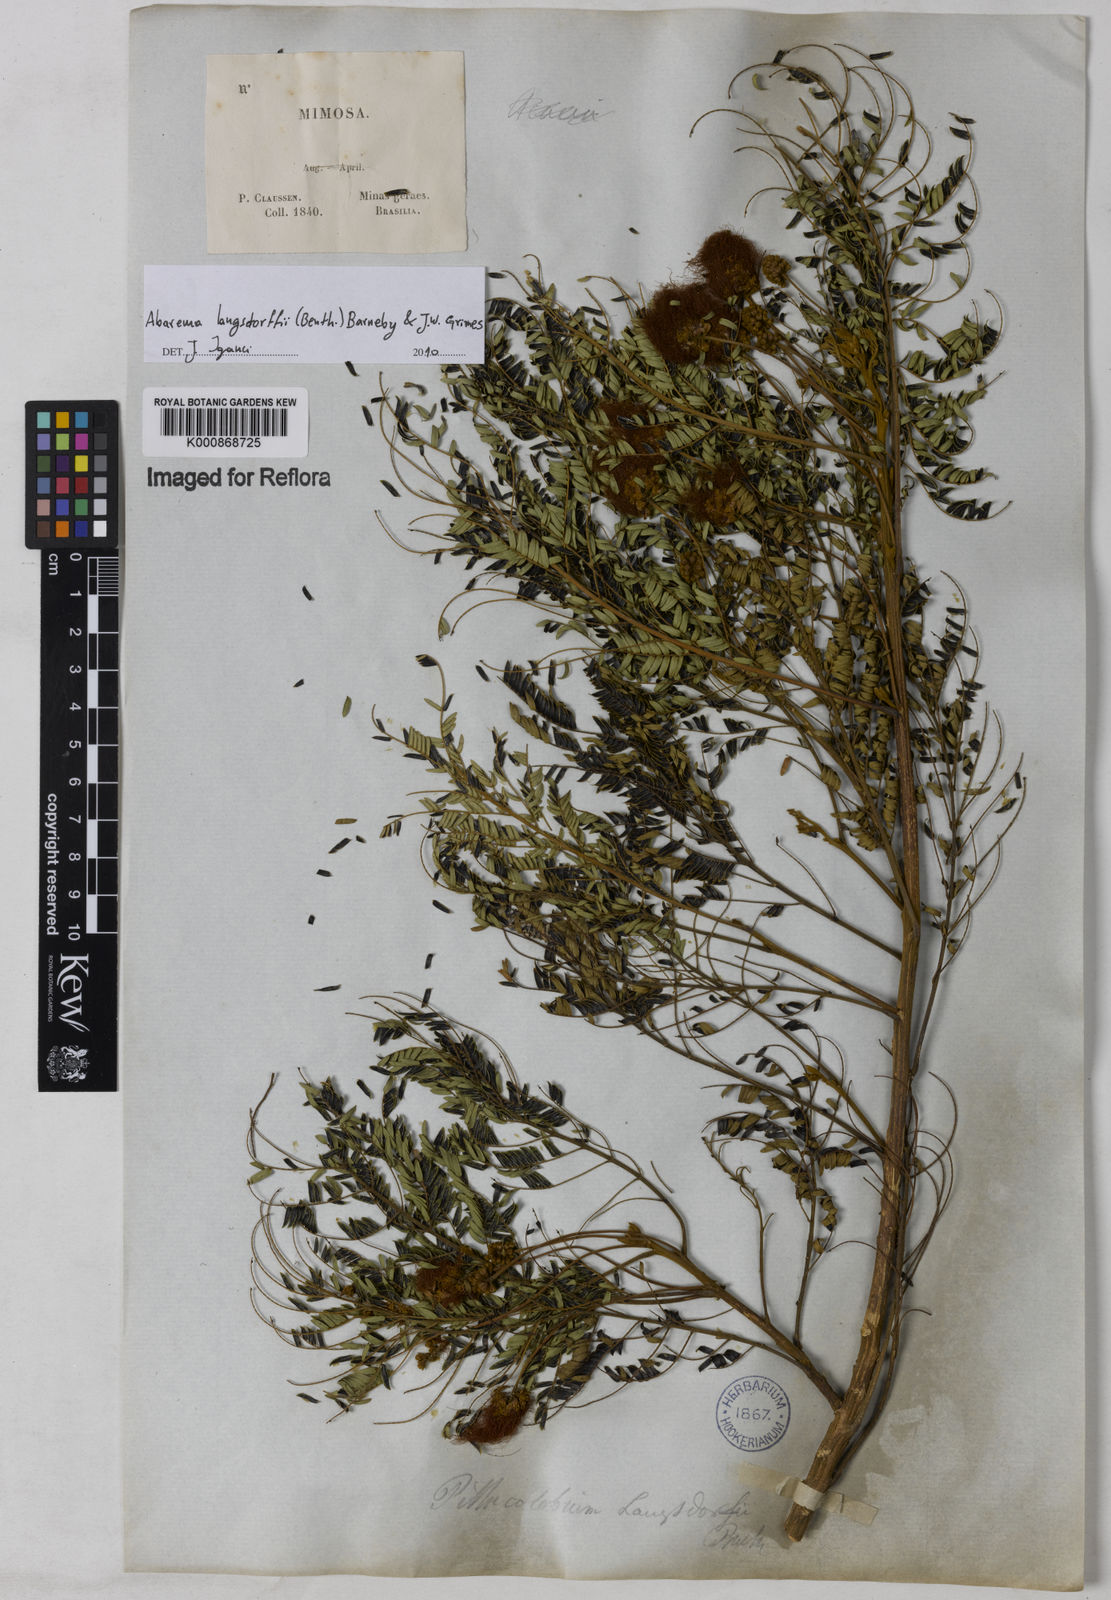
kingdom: Plantae
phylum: Tracheophyta
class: Magnoliopsida
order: Fabales
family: Fabaceae
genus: Jupunba
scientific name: Jupunba langsdorffii
